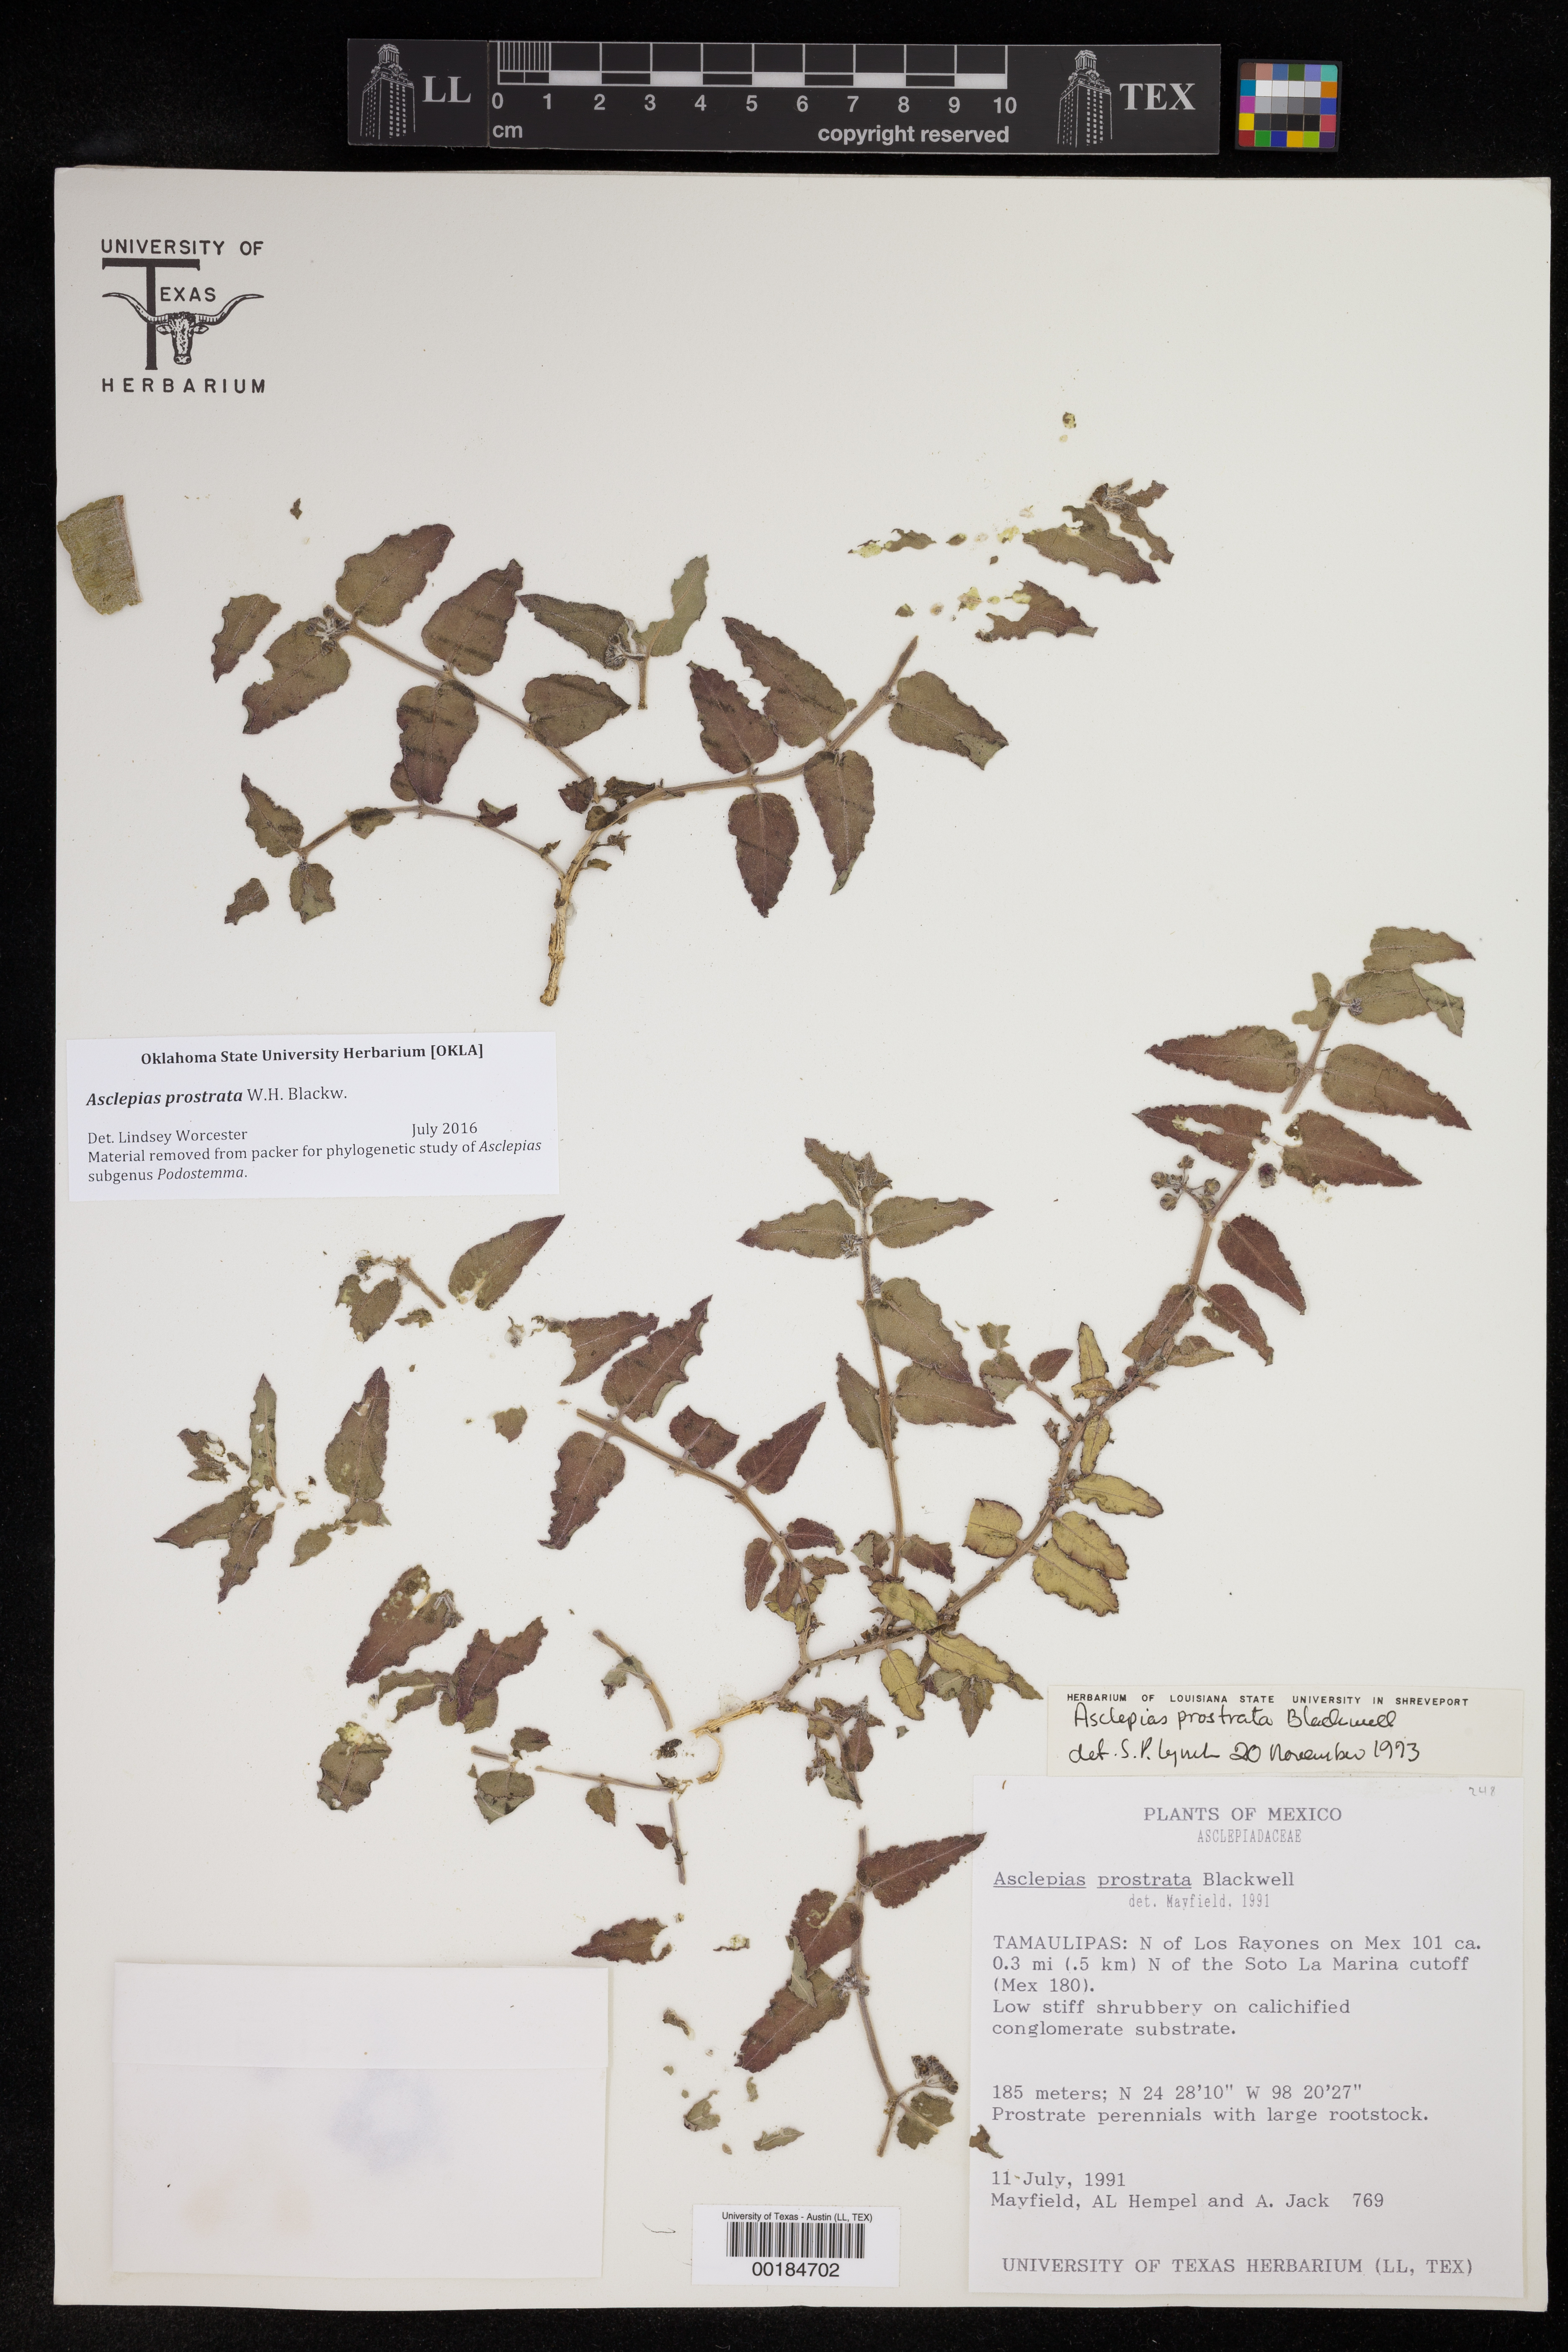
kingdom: Plantae
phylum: Tracheophyta
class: Magnoliopsida
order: Gentianales
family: Apocynaceae
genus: Asclepias
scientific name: Asclepias prostrata
